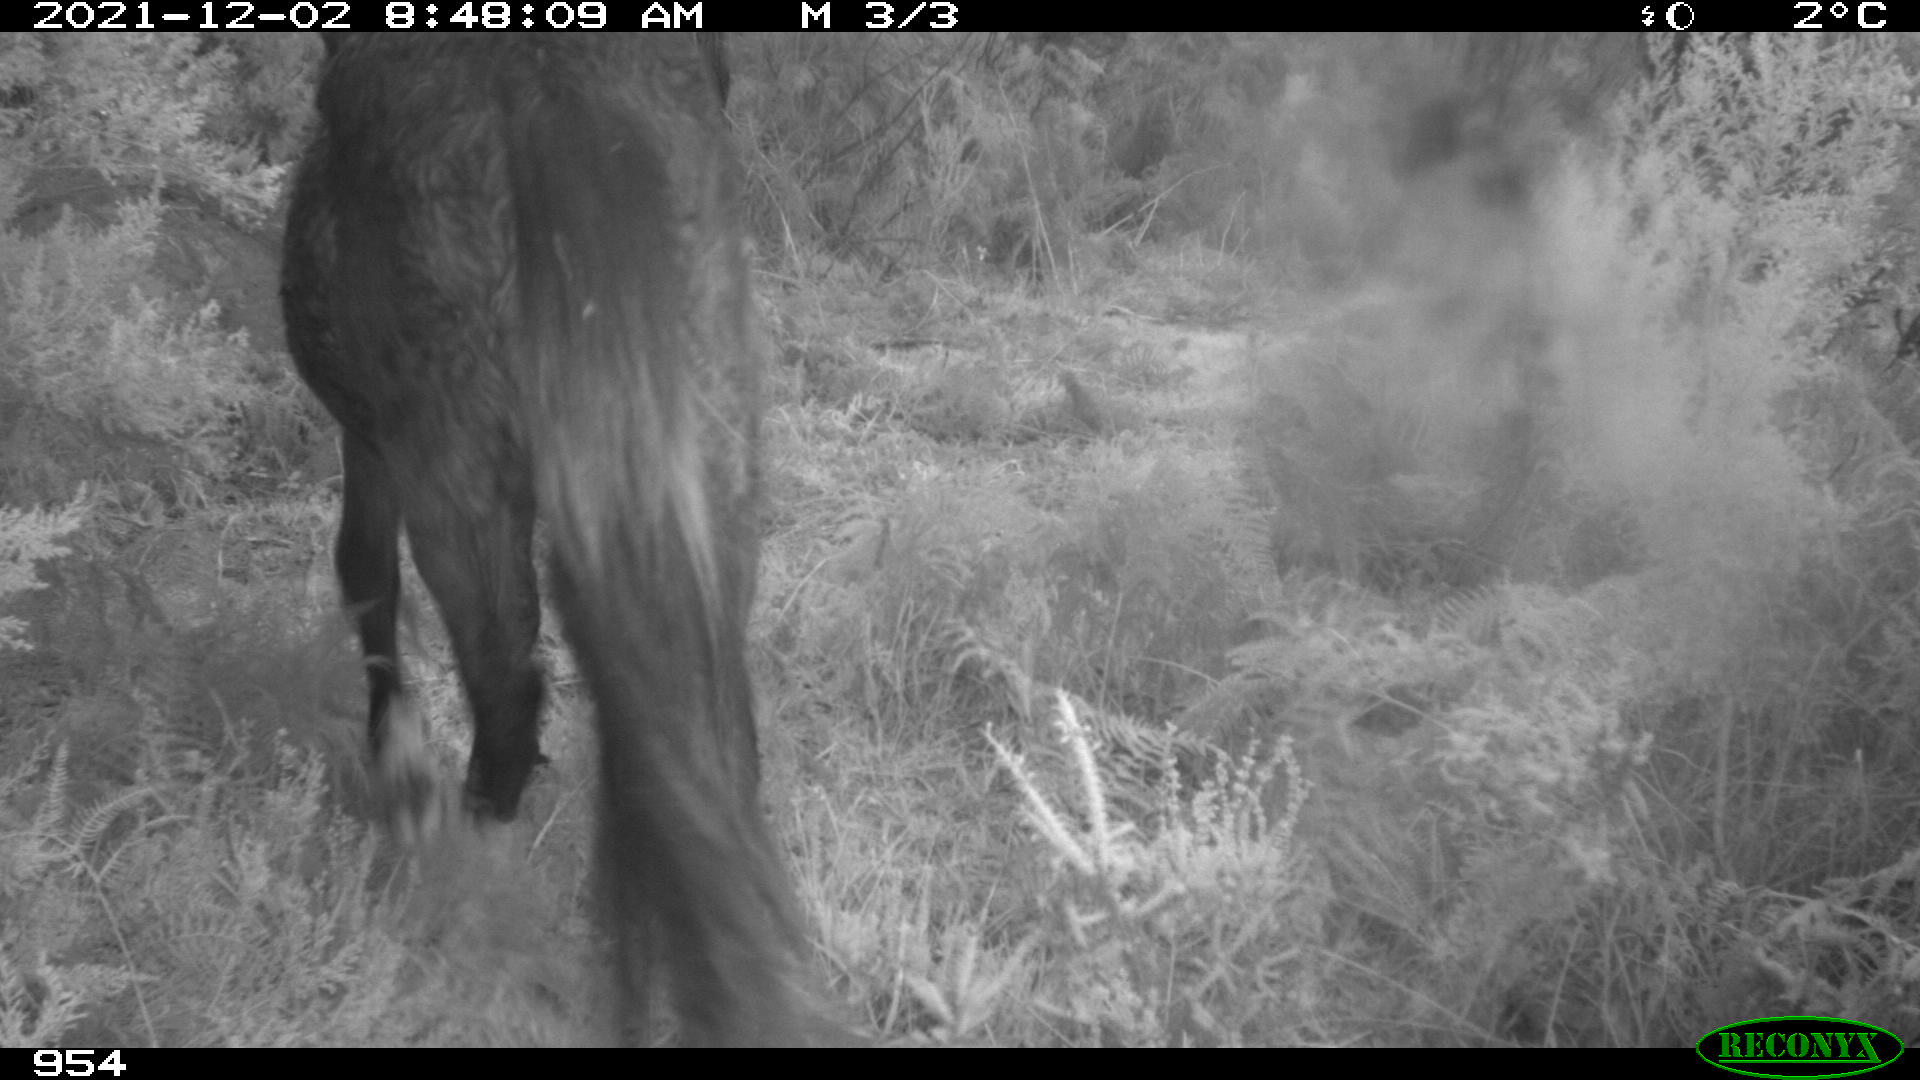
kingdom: Animalia
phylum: Chordata
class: Mammalia
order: Perissodactyla
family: Equidae
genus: Equus
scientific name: Equus caballus
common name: Horse
